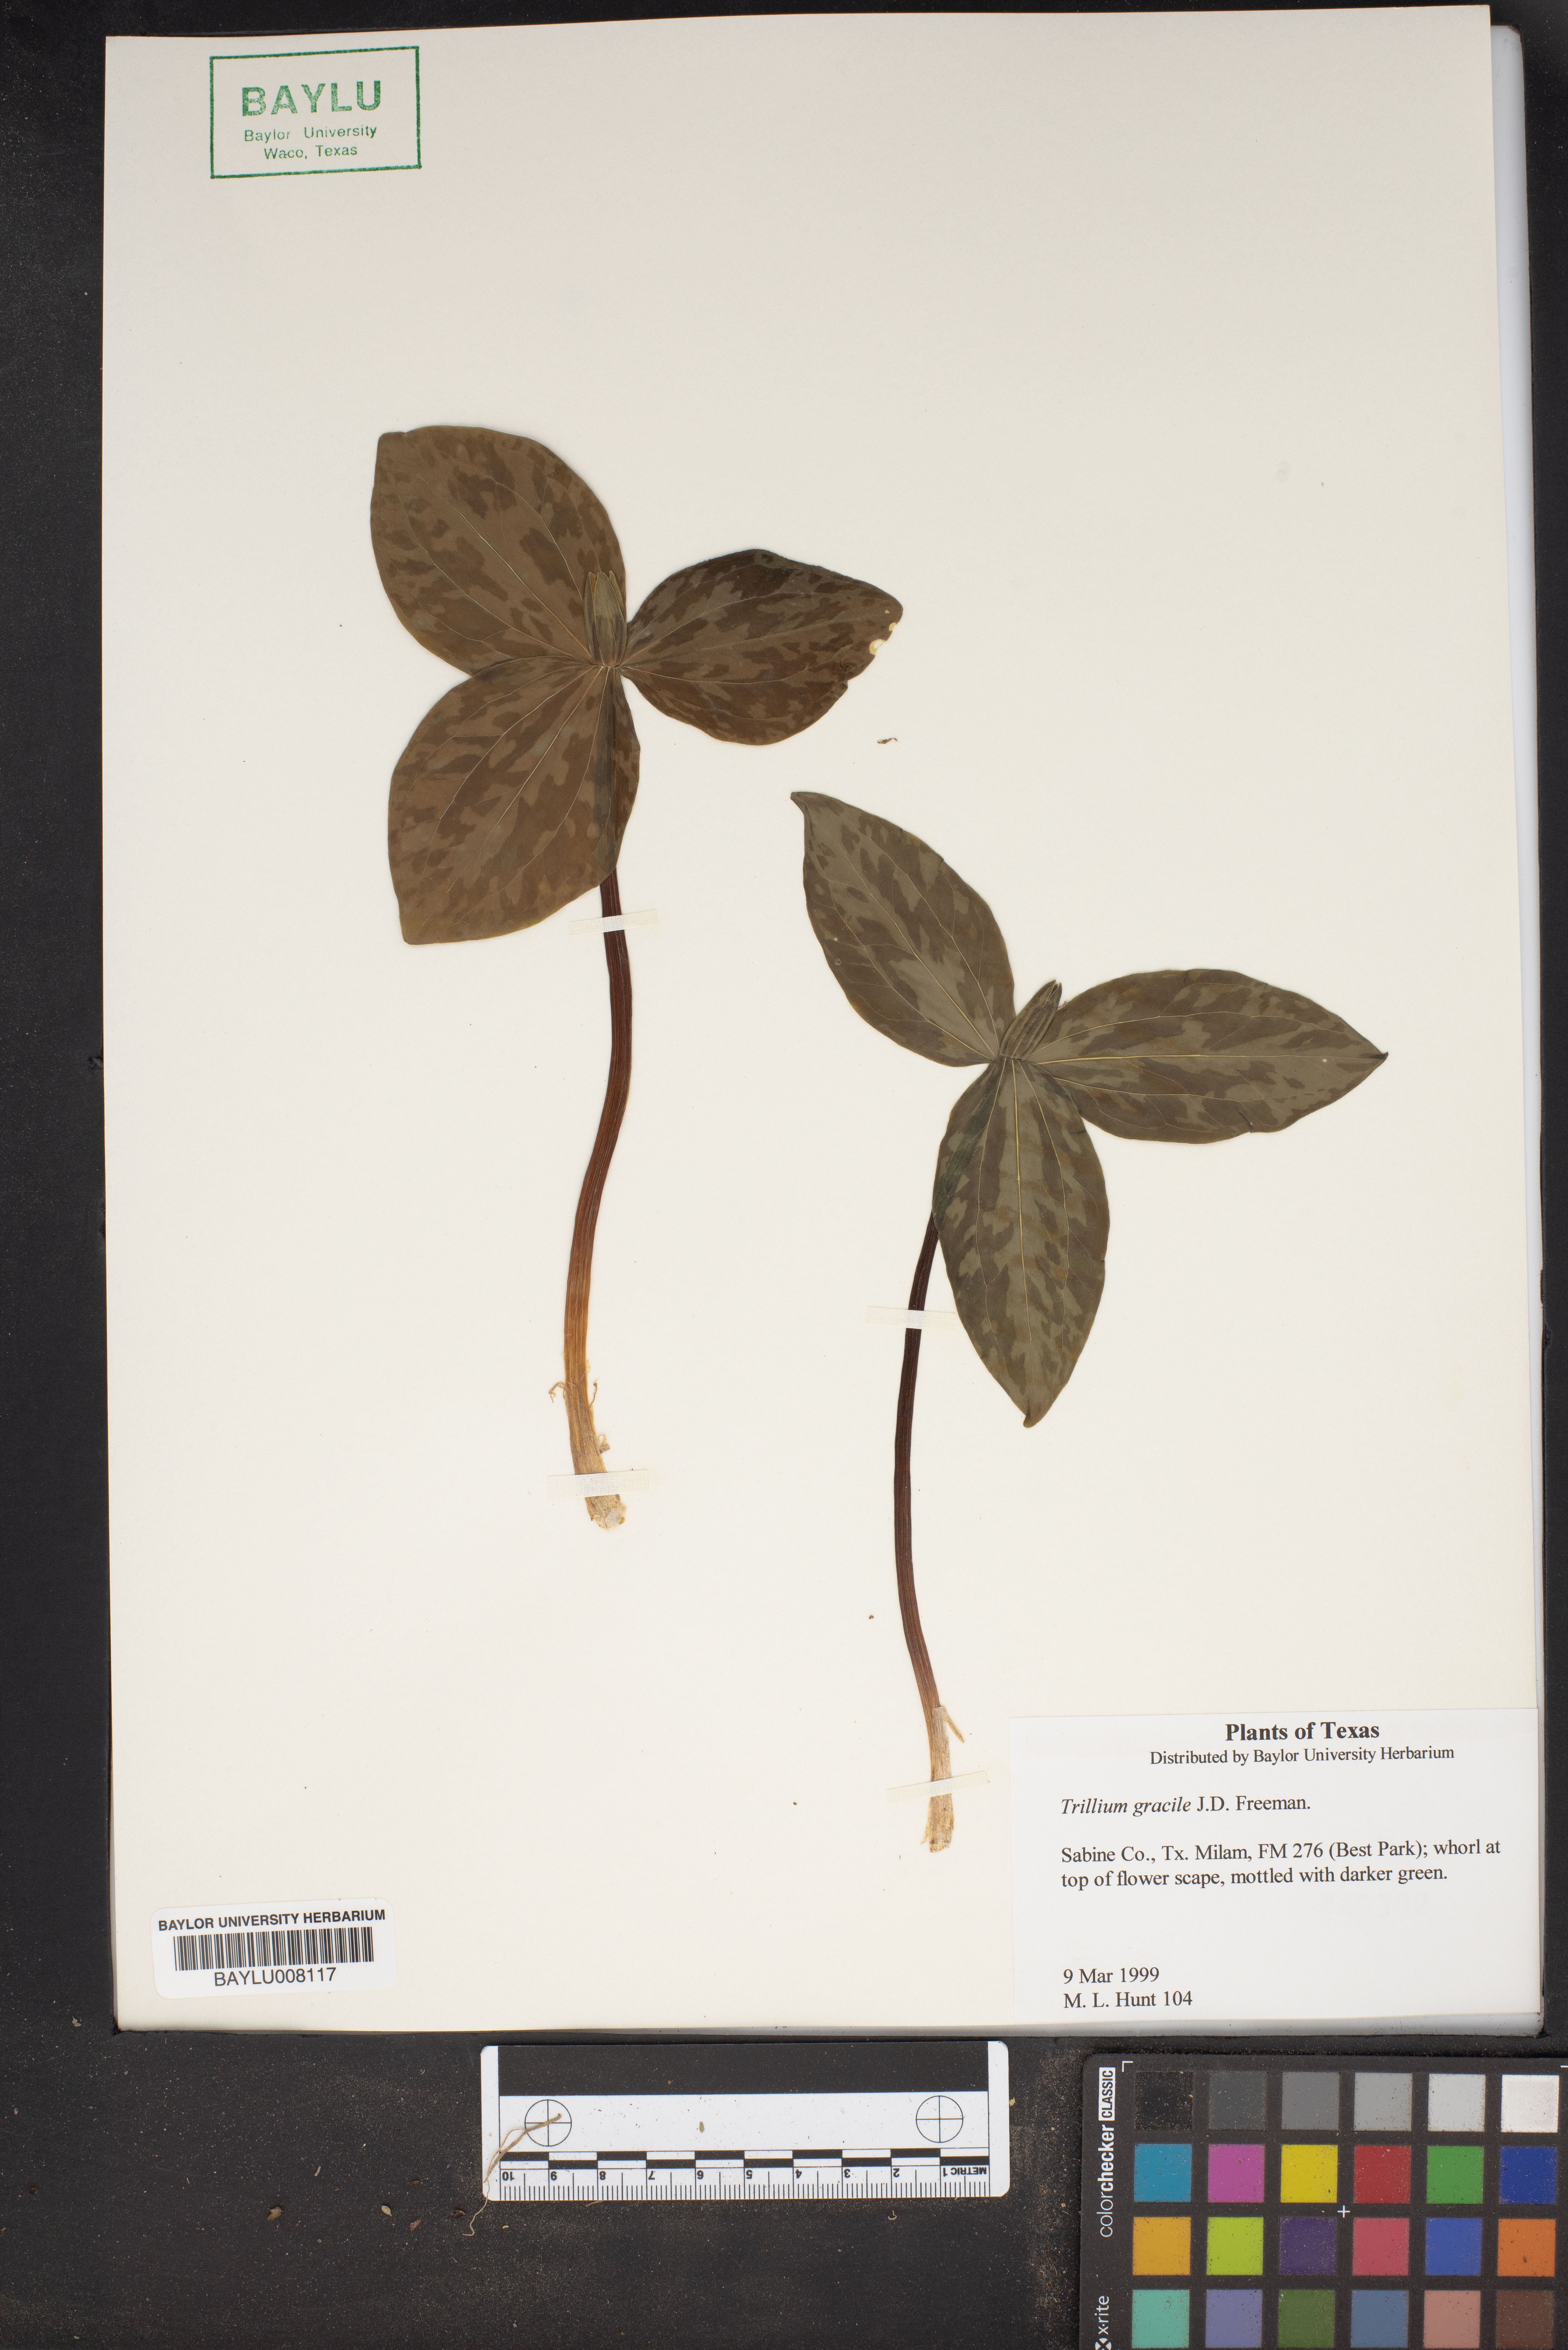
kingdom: Plantae
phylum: Tracheophyta
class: Liliopsida
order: Liliales
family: Melanthiaceae
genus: Trillium
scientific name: Trillium gracile
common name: Graceful trillium
